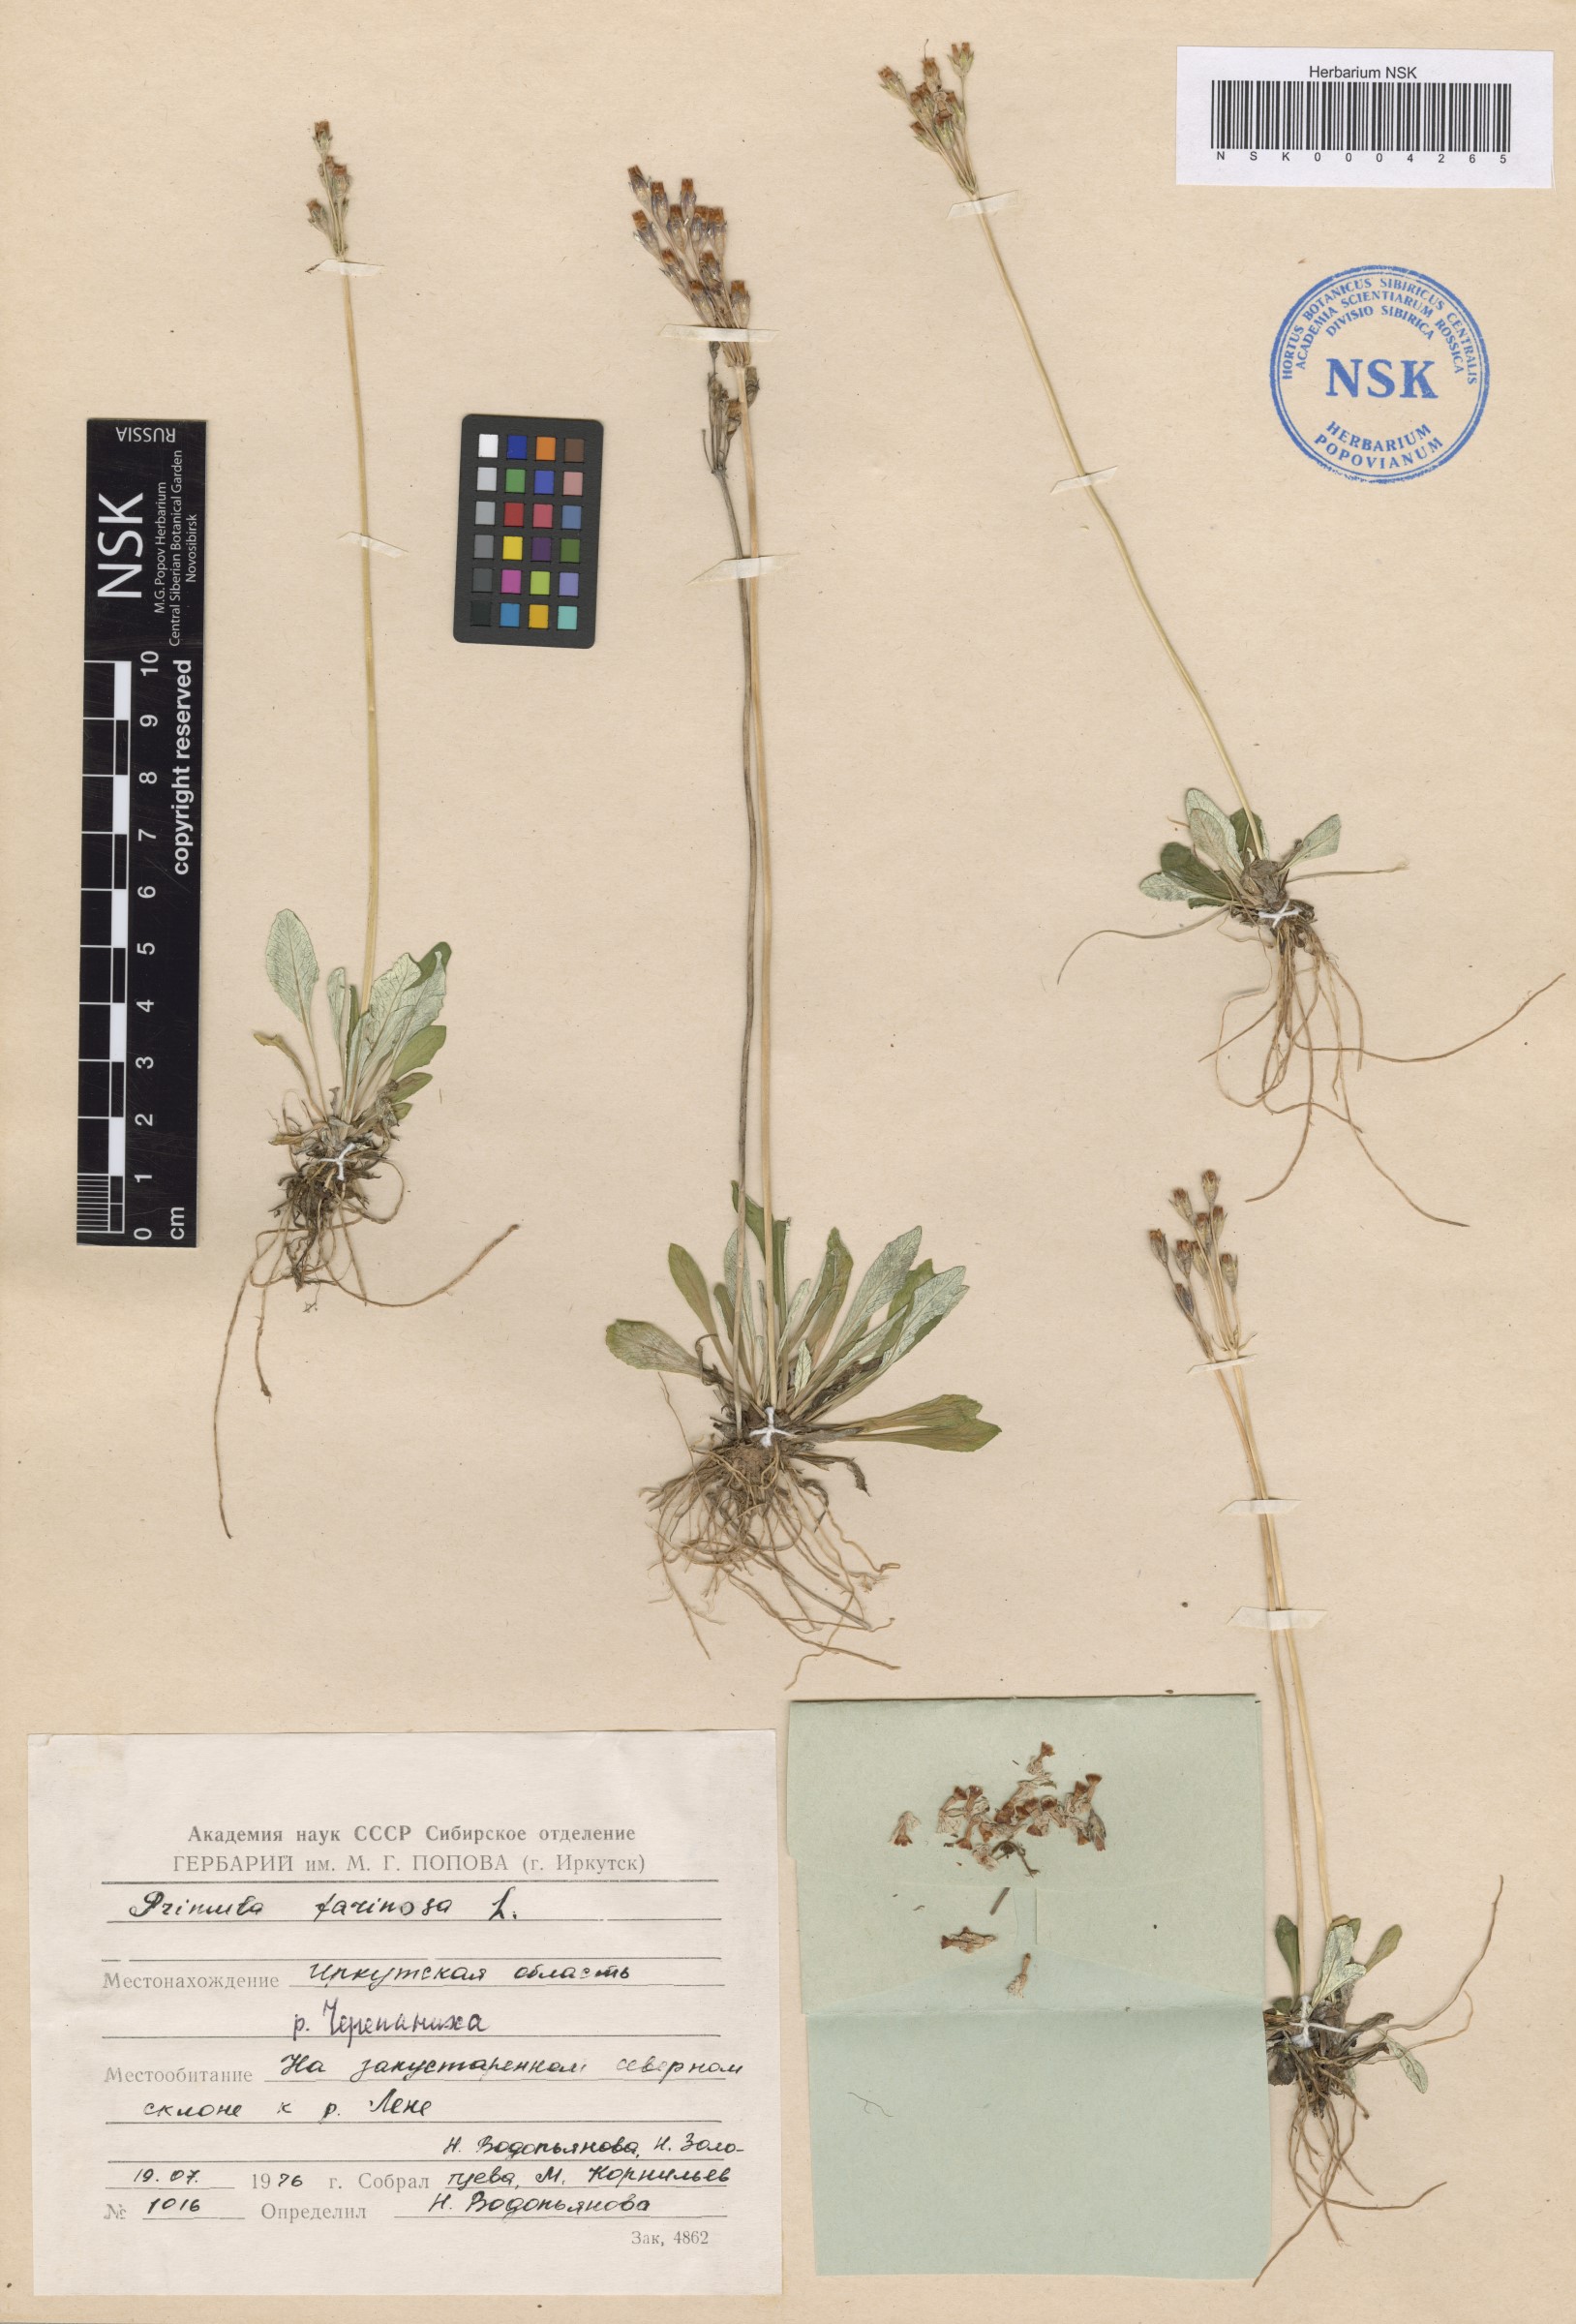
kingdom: Plantae
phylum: Tracheophyta
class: Magnoliopsida
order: Ericales
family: Primulaceae
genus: Primula
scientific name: Primula farinosa
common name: Bird's-eye primrose
